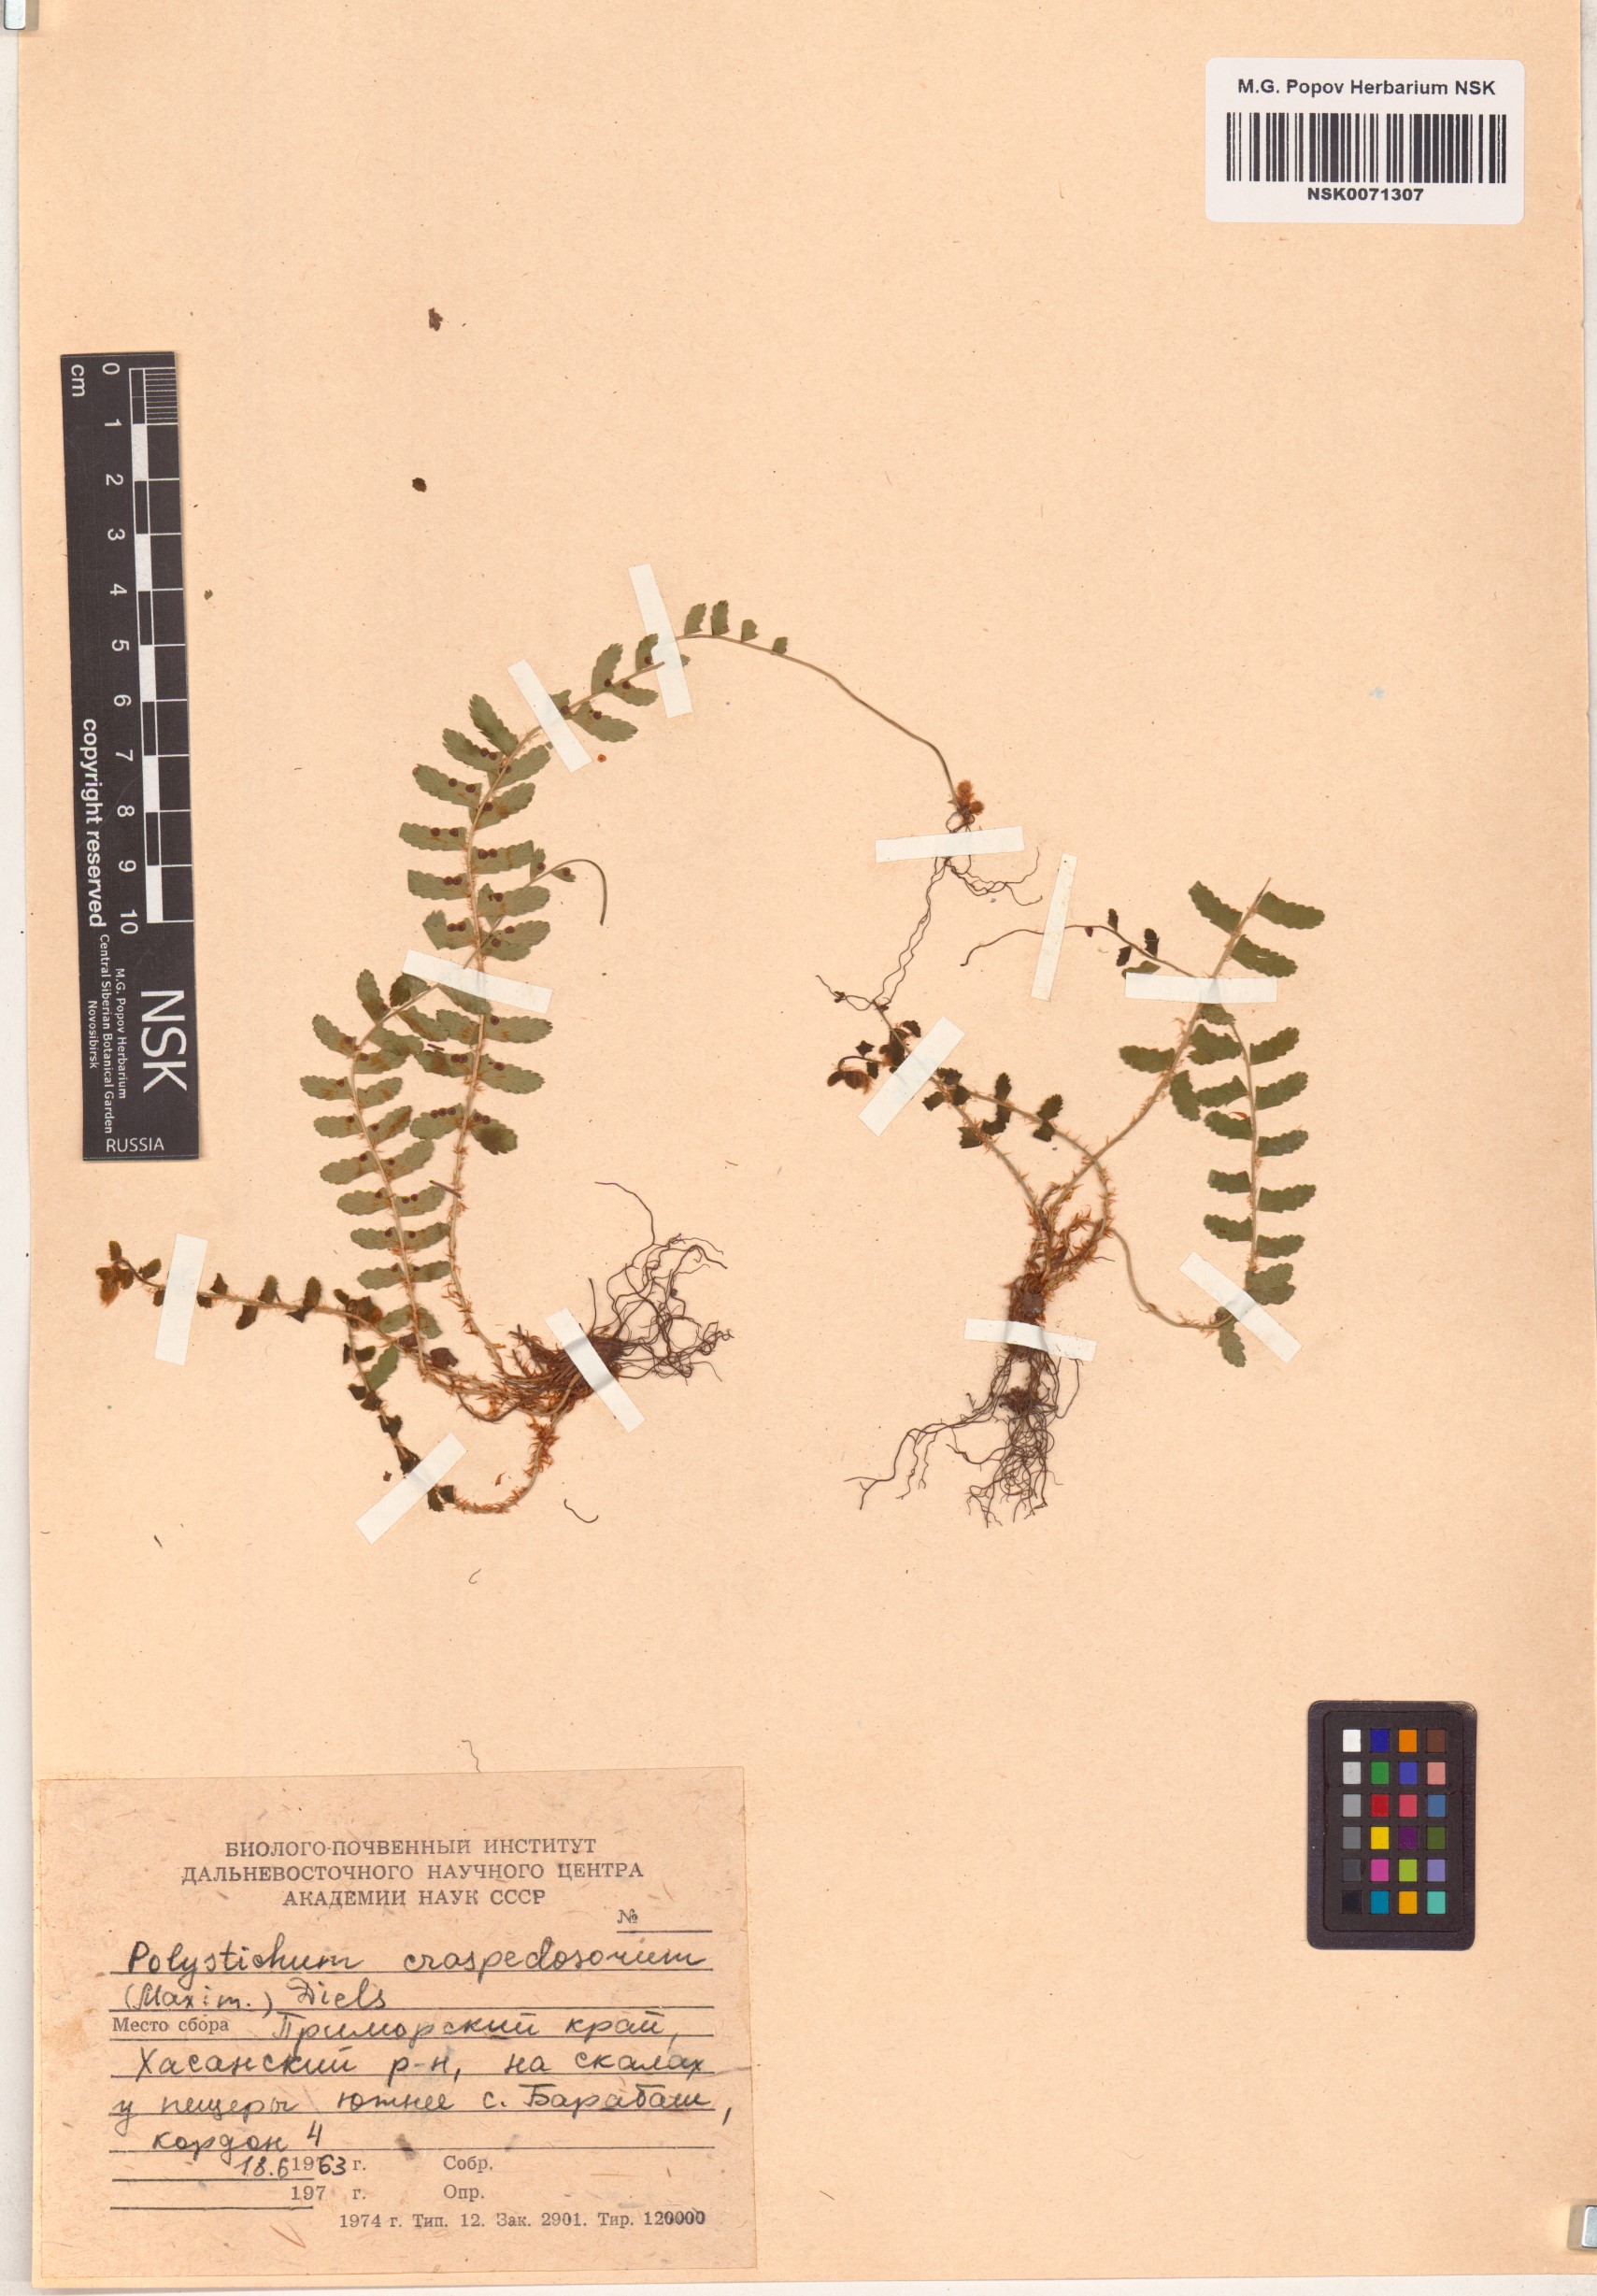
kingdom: Plantae
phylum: Tracheophyta
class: Polypodiopsida
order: Polypodiales
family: Dryopteridaceae
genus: Polystichum
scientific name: Polystichum craspedosorum
